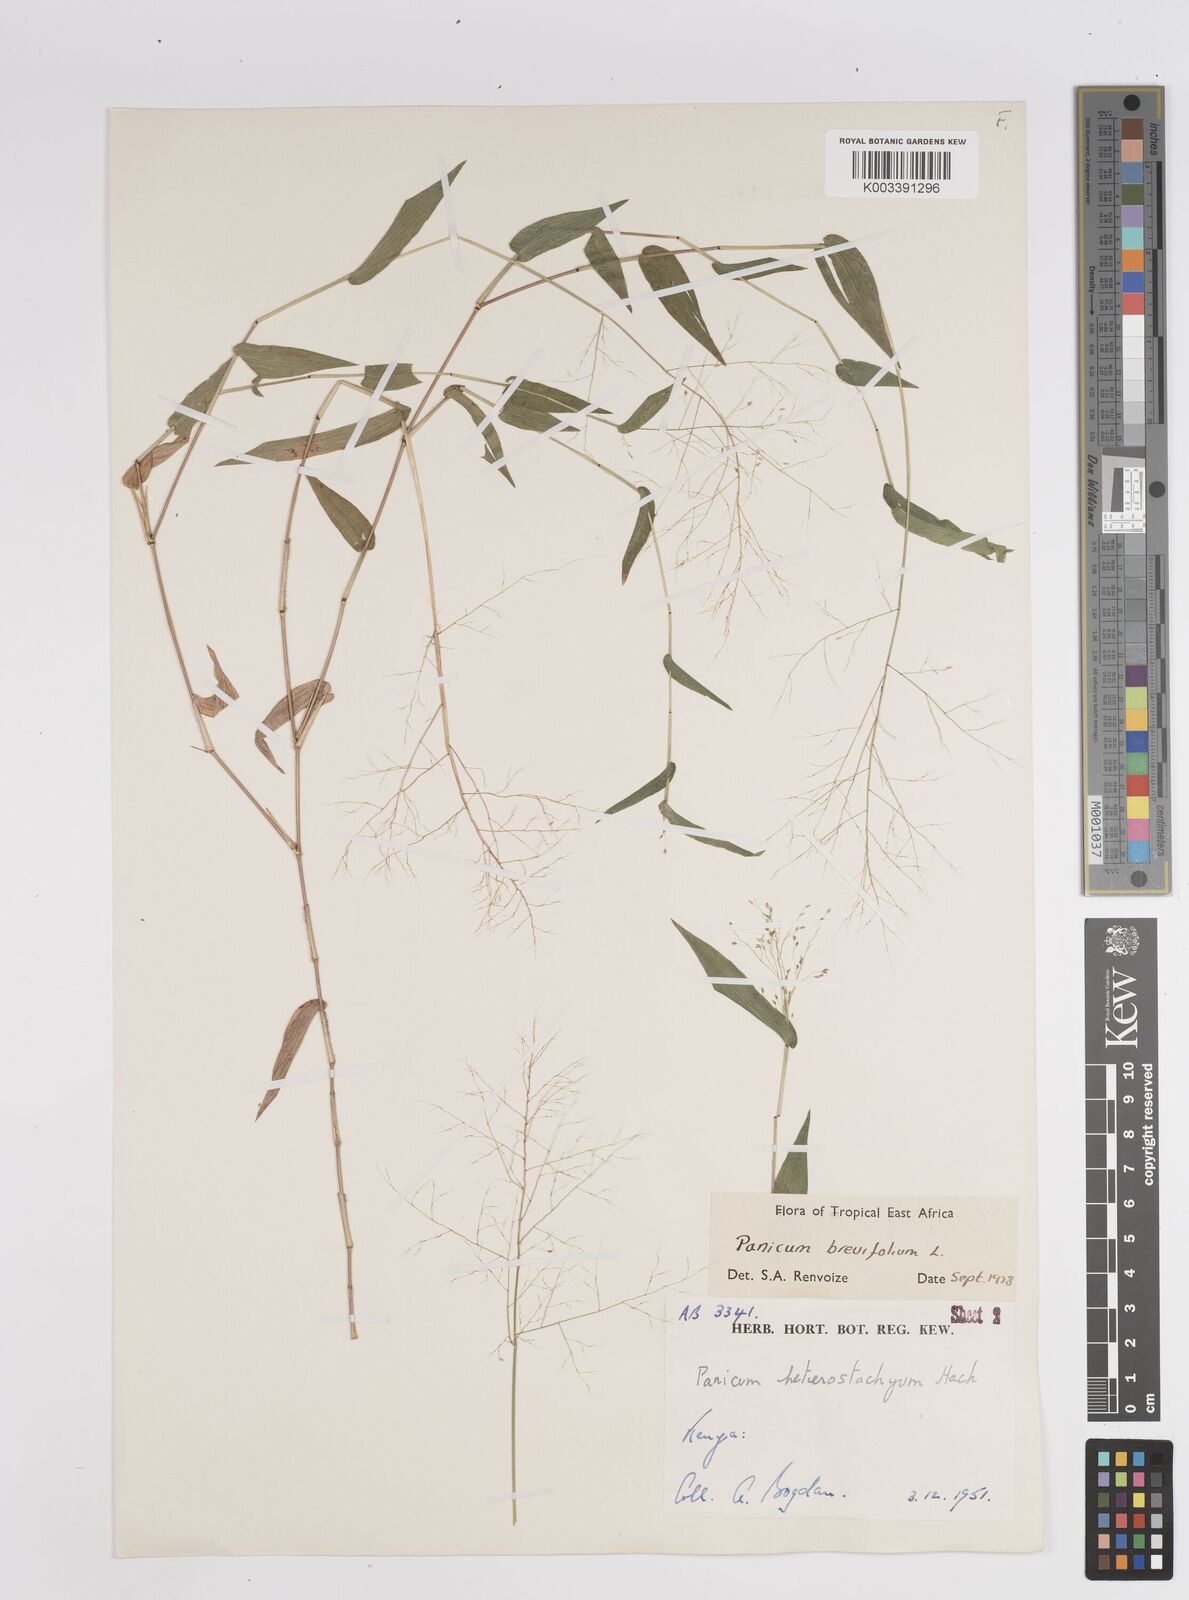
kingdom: Plantae
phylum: Tracheophyta
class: Liliopsida
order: Poales
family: Poaceae
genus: Panicum
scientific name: Panicum brevifolium
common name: Shortleaf panic grass
